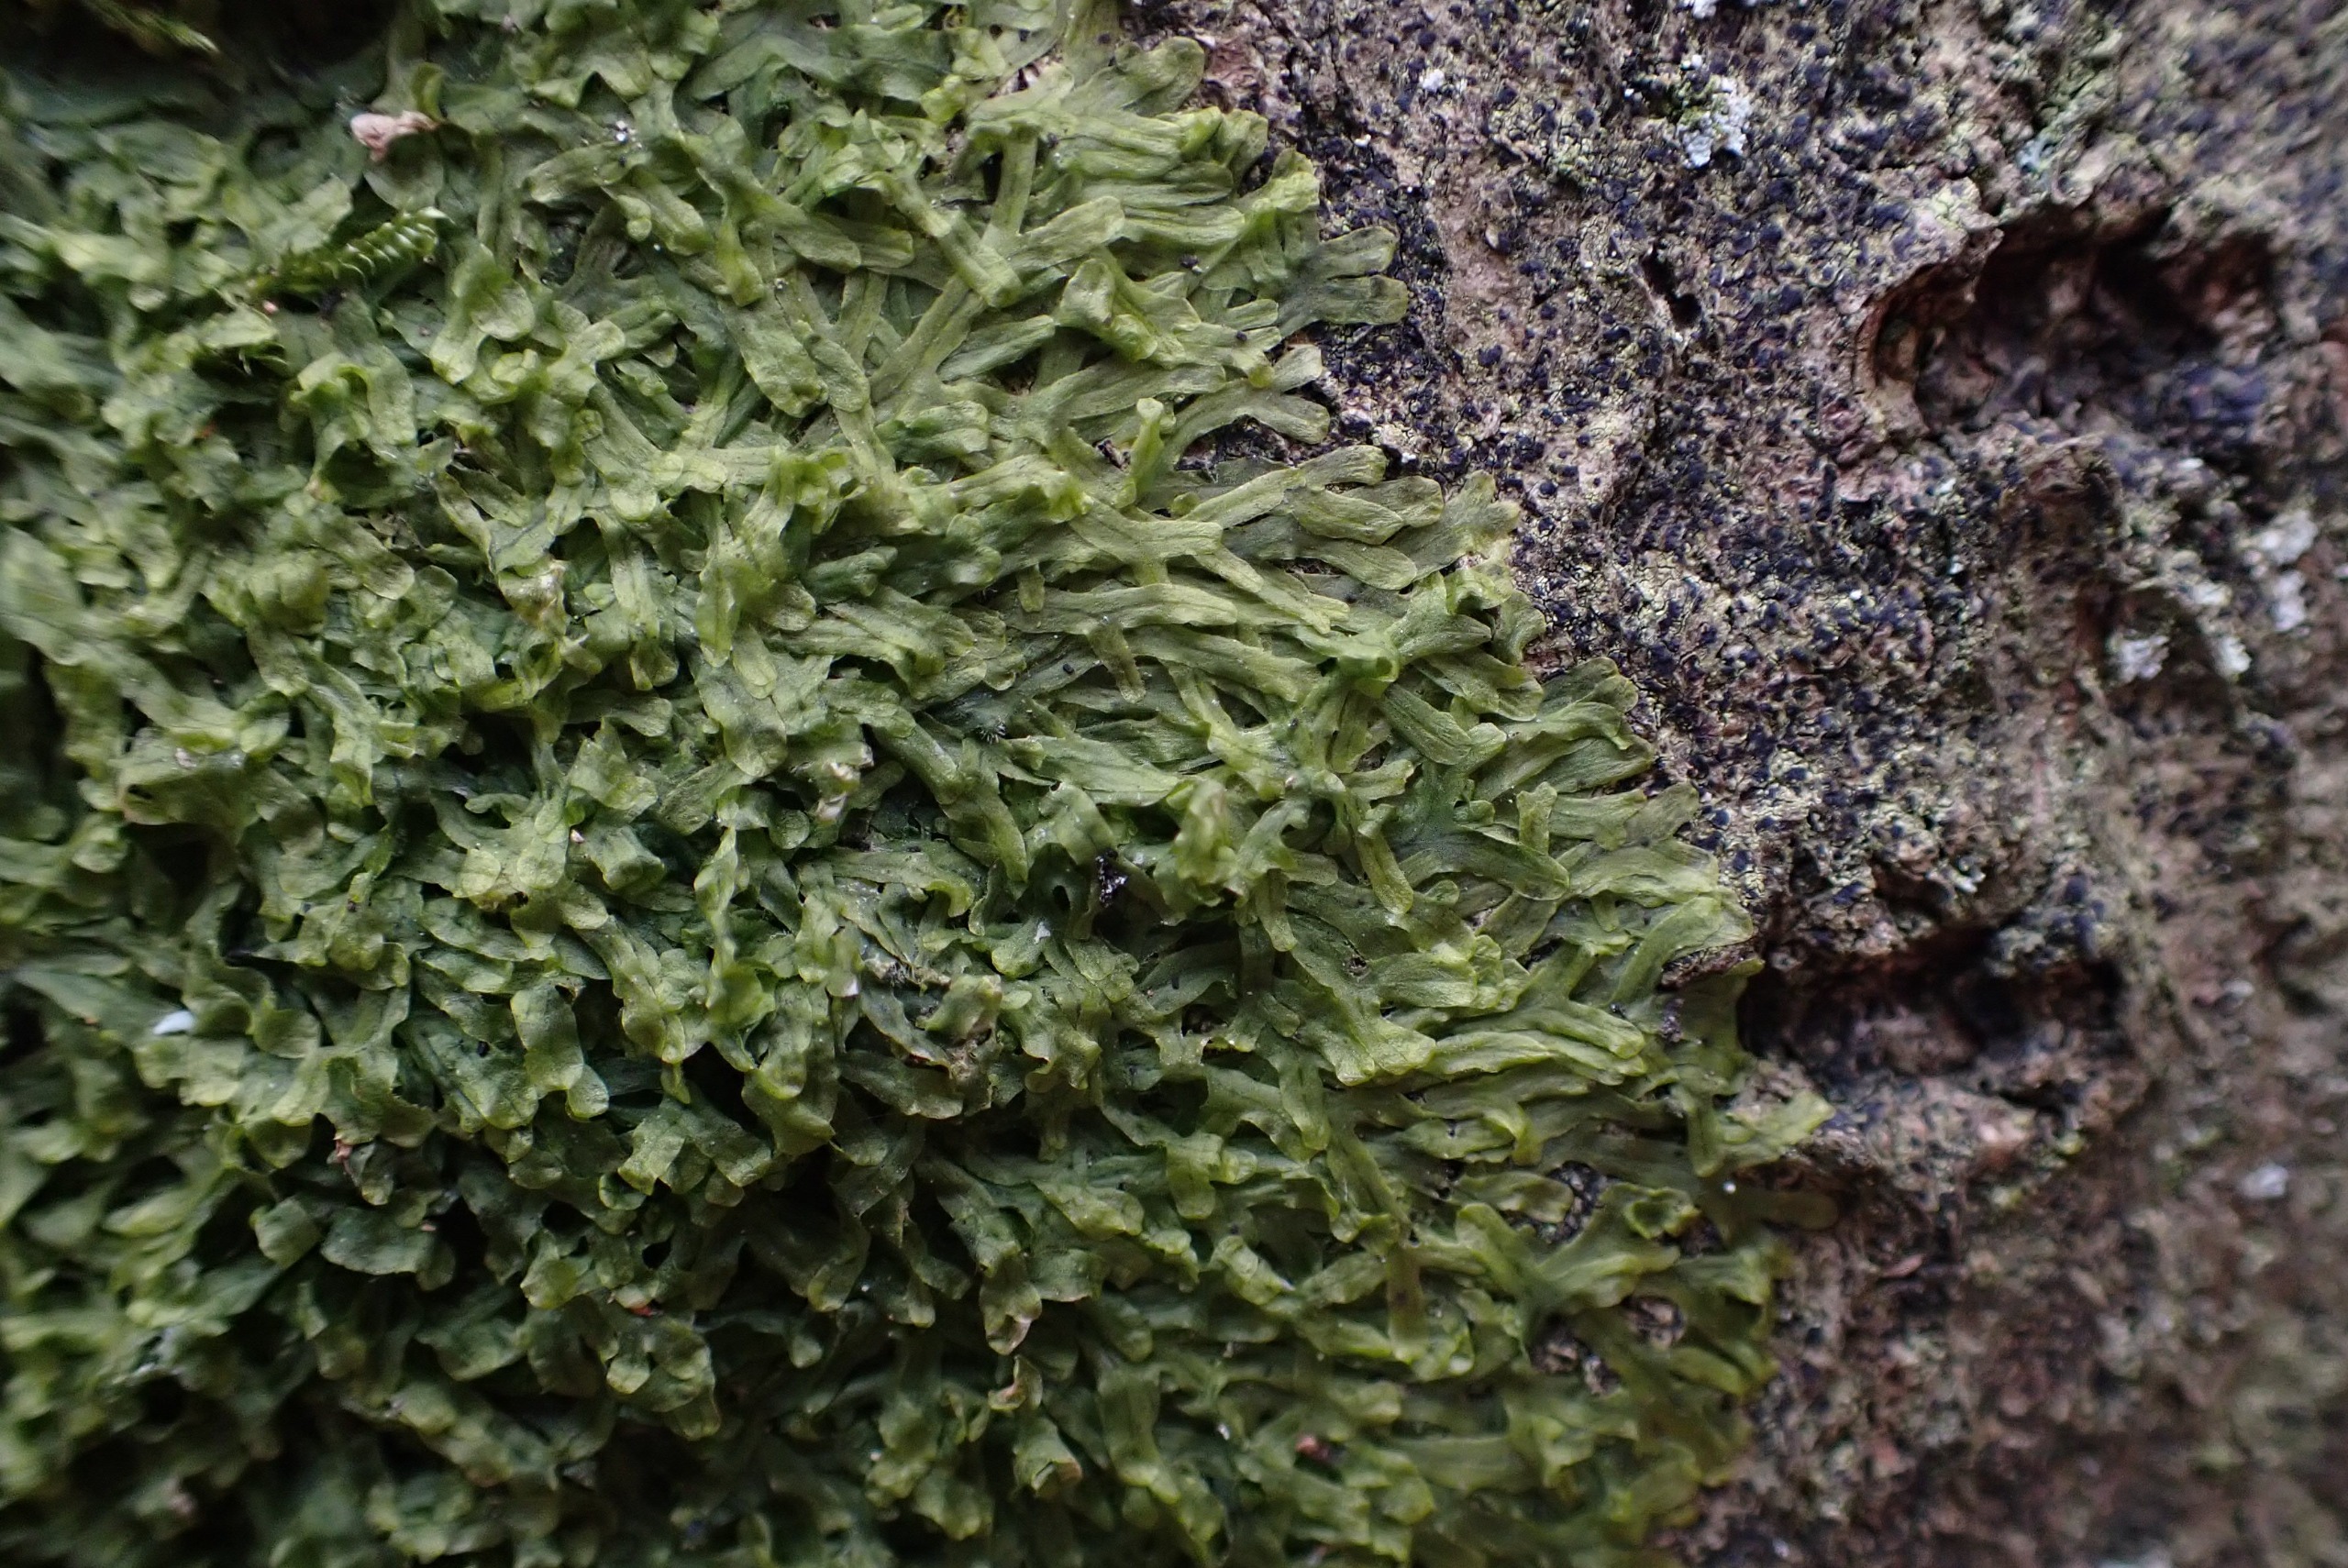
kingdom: Plantae
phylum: Marchantiophyta
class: Jungermanniopsida
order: Metzgeriales
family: Metzgeriaceae
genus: Metzgeria
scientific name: Metzgeria furcata
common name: Almindelig gaffelløv
